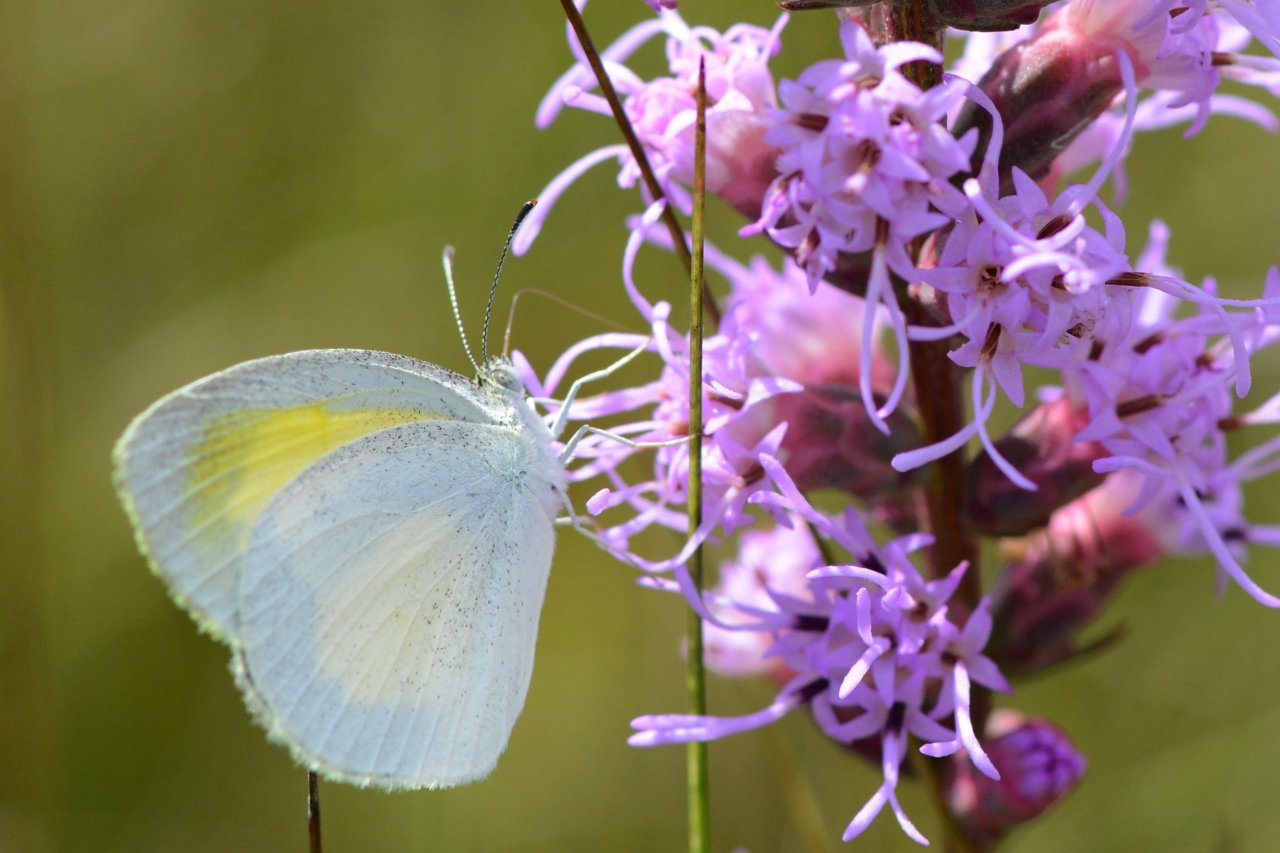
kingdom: Animalia
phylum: Arthropoda
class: Insecta
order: Lepidoptera
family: Pieridae
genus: Pyrisitia
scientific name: Pyrisitia lisa
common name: Little Yellow
